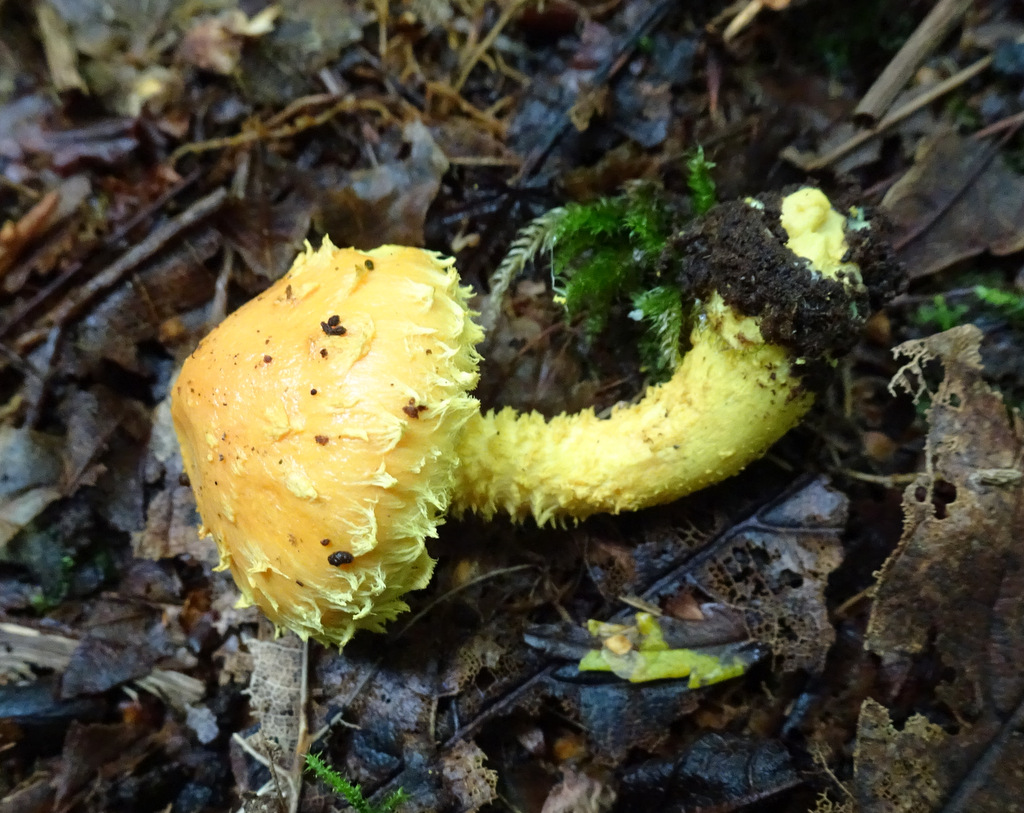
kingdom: Fungi
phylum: Basidiomycota
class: Agaricomycetes
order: Agaricales
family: Strophariaceae
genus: Pholiota
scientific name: Pholiota flammans
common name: flamme-skælhat
